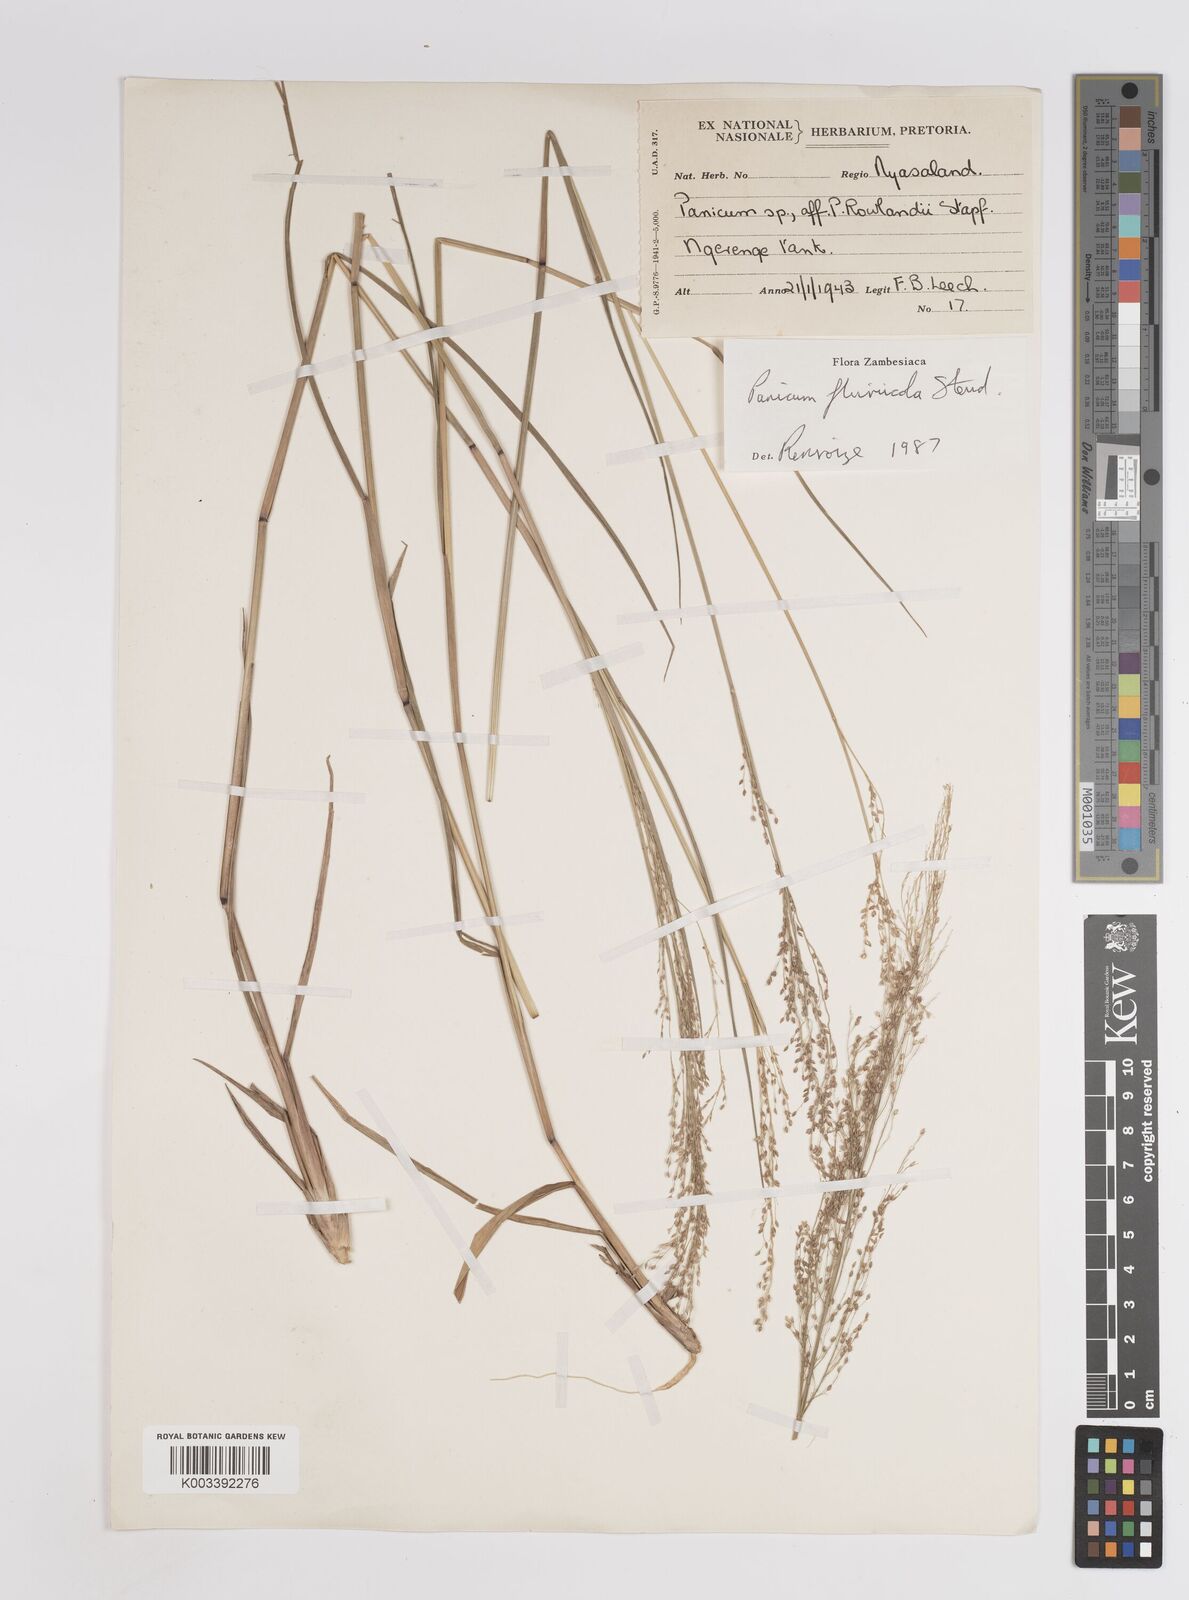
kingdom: Plantae
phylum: Tracheophyta
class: Liliopsida
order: Poales
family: Poaceae
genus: Panicum
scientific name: Panicum fluviicola
